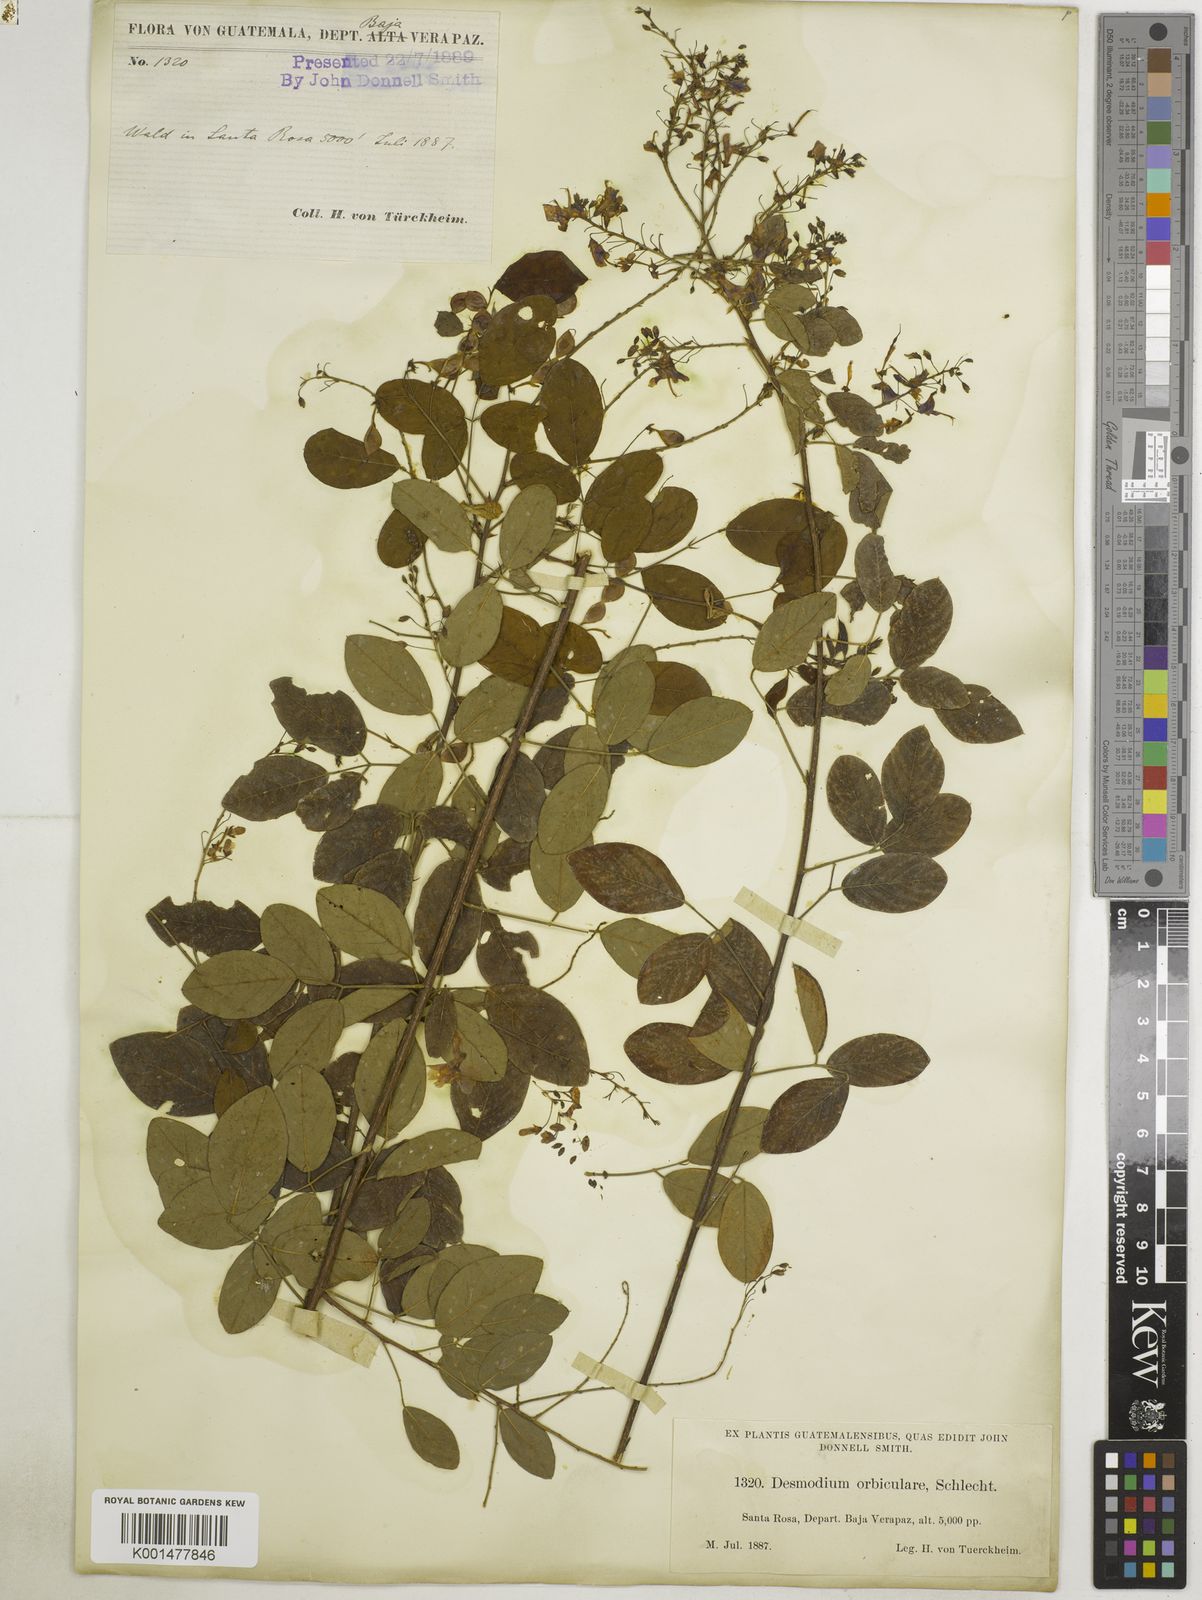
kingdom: Plantae
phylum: Tracheophyta
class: Magnoliopsida
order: Fabales
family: Fabaceae
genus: Desmodium
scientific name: Desmodium orbiculare
